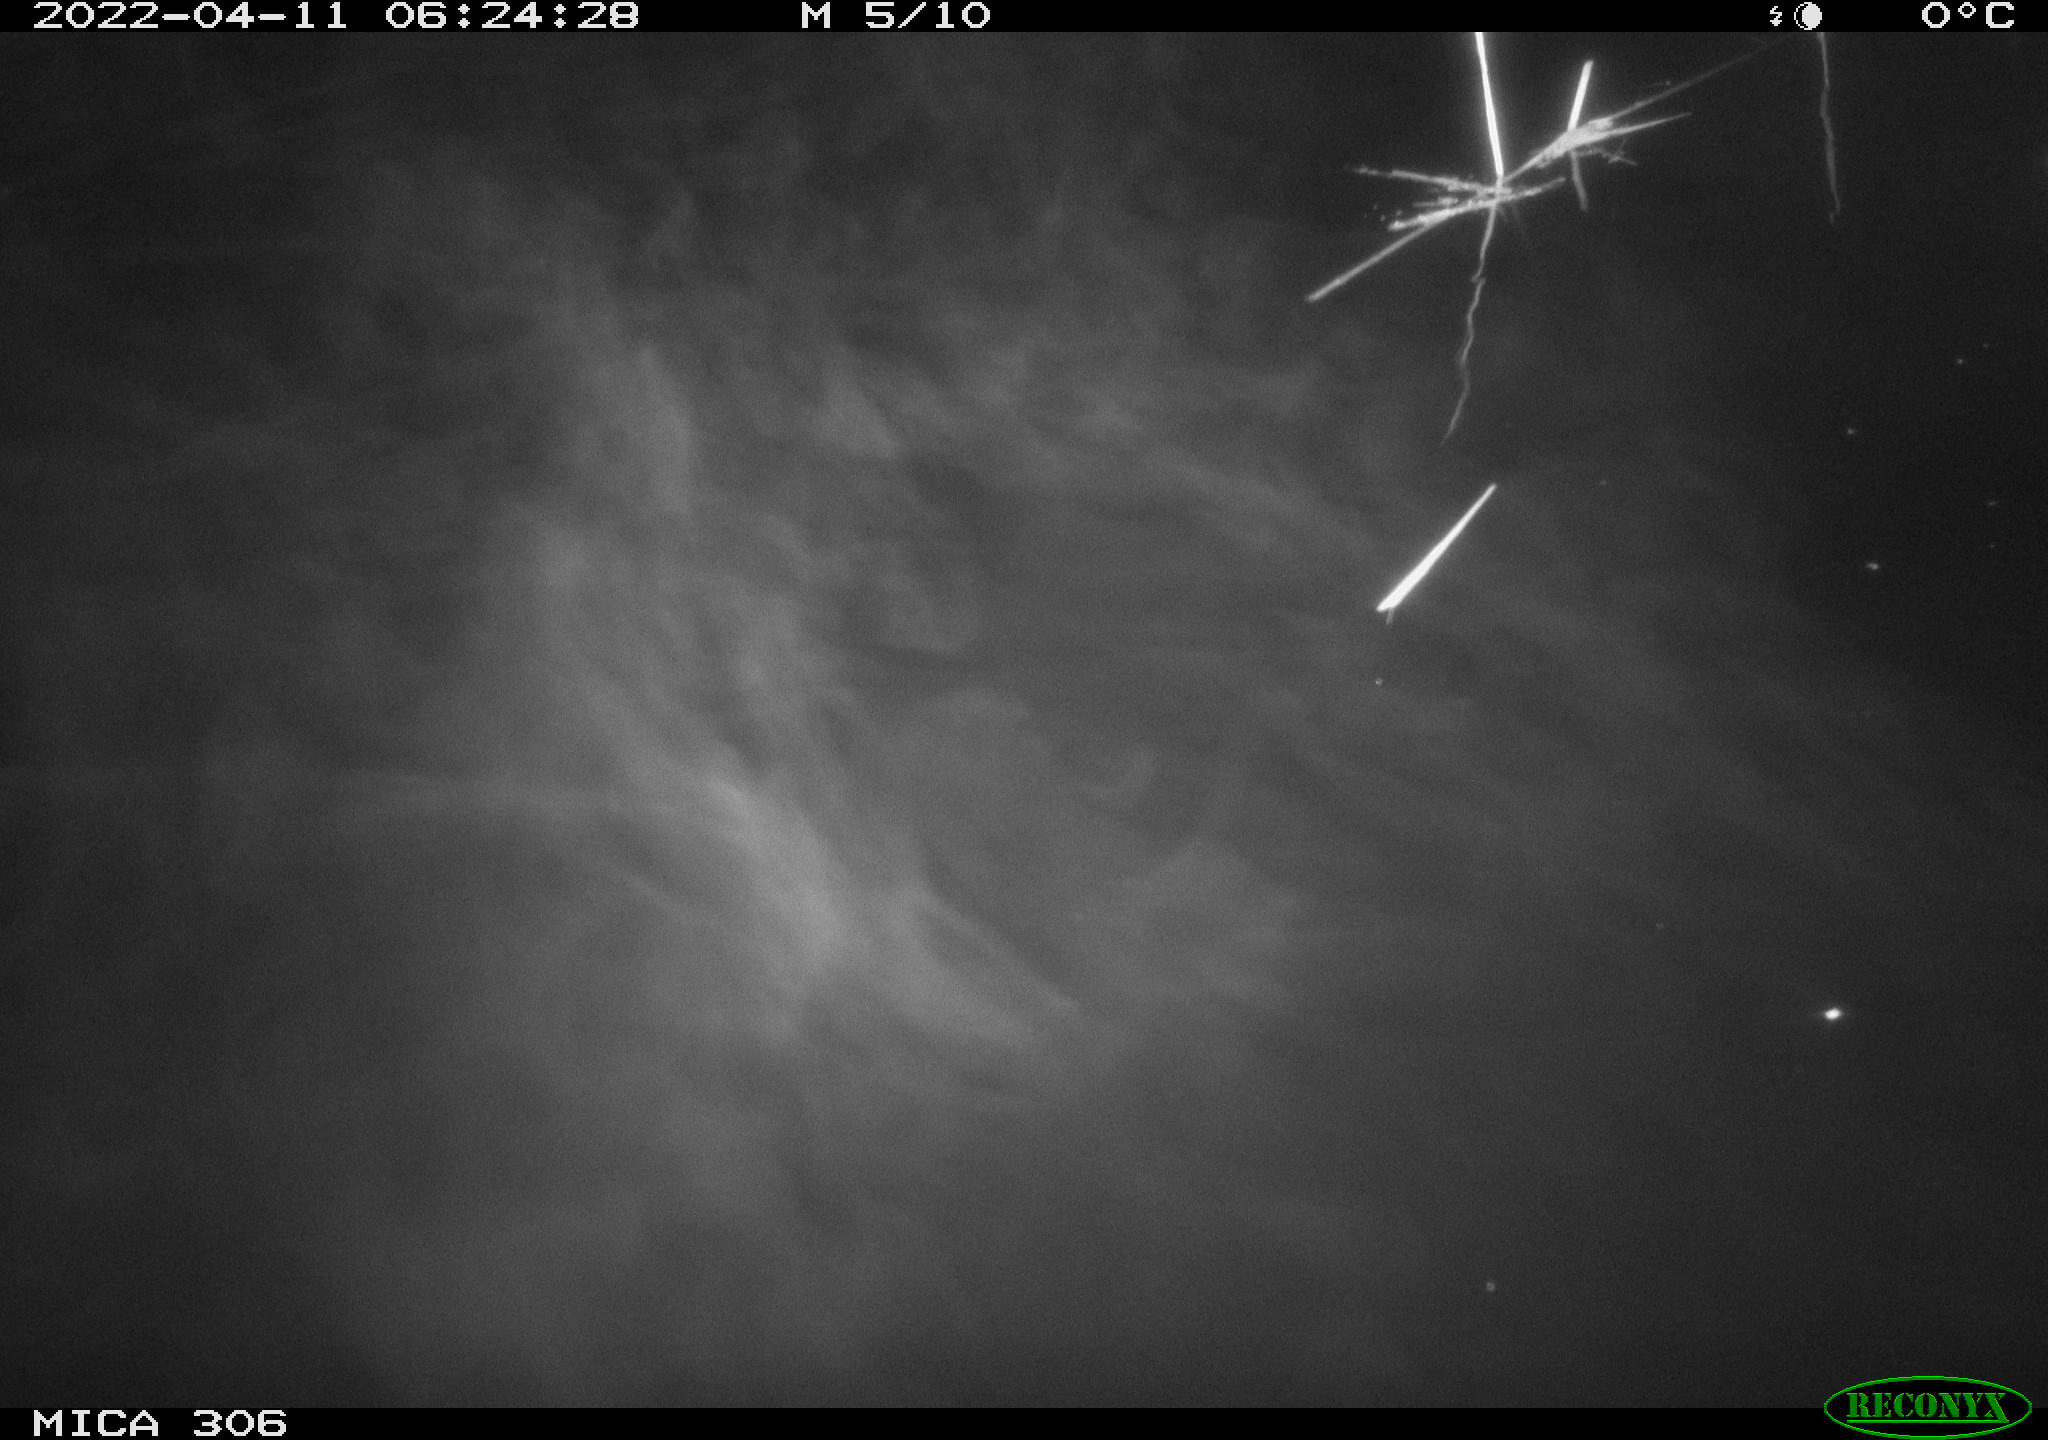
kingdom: Animalia
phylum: Chordata
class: Aves
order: Gruiformes
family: Rallidae
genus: Fulica
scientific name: Fulica atra
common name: Eurasian coot
